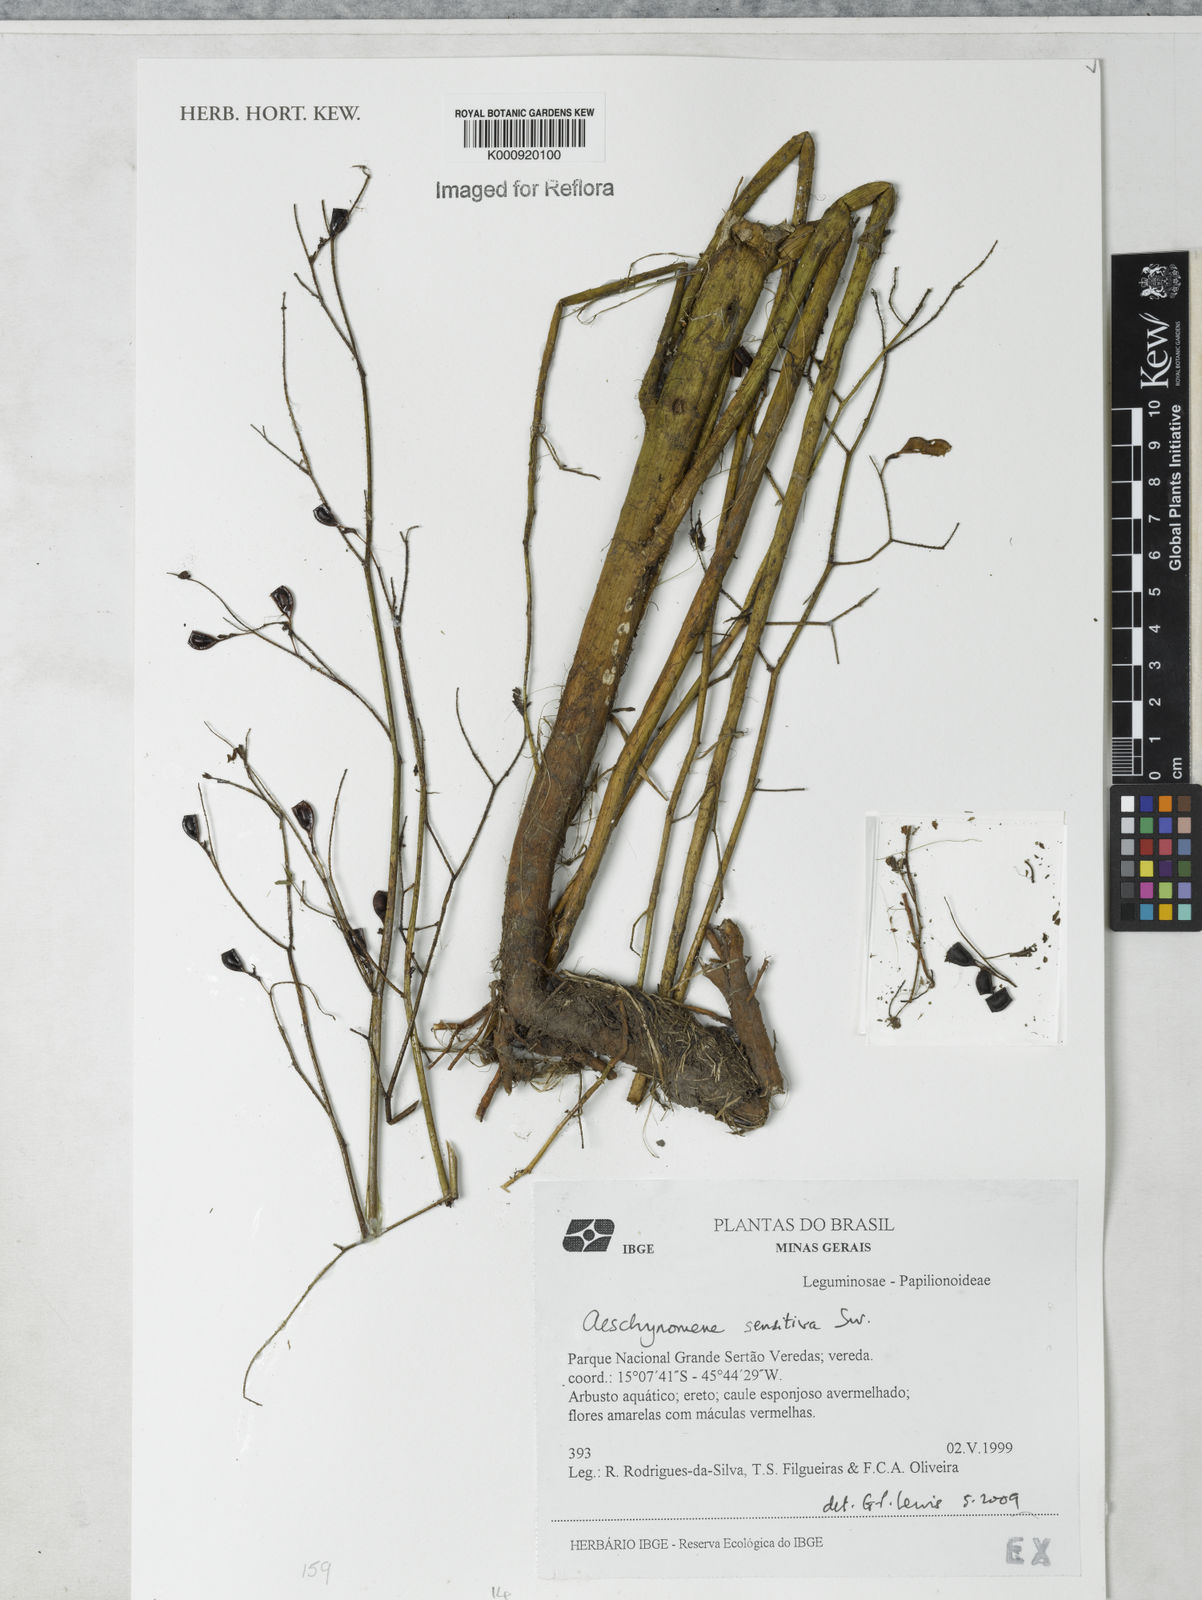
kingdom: Plantae
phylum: Tracheophyta
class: Magnoliopsida
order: Fabales
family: Fabaceae
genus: Aeschynomene
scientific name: Aeschynomene sensitiva
